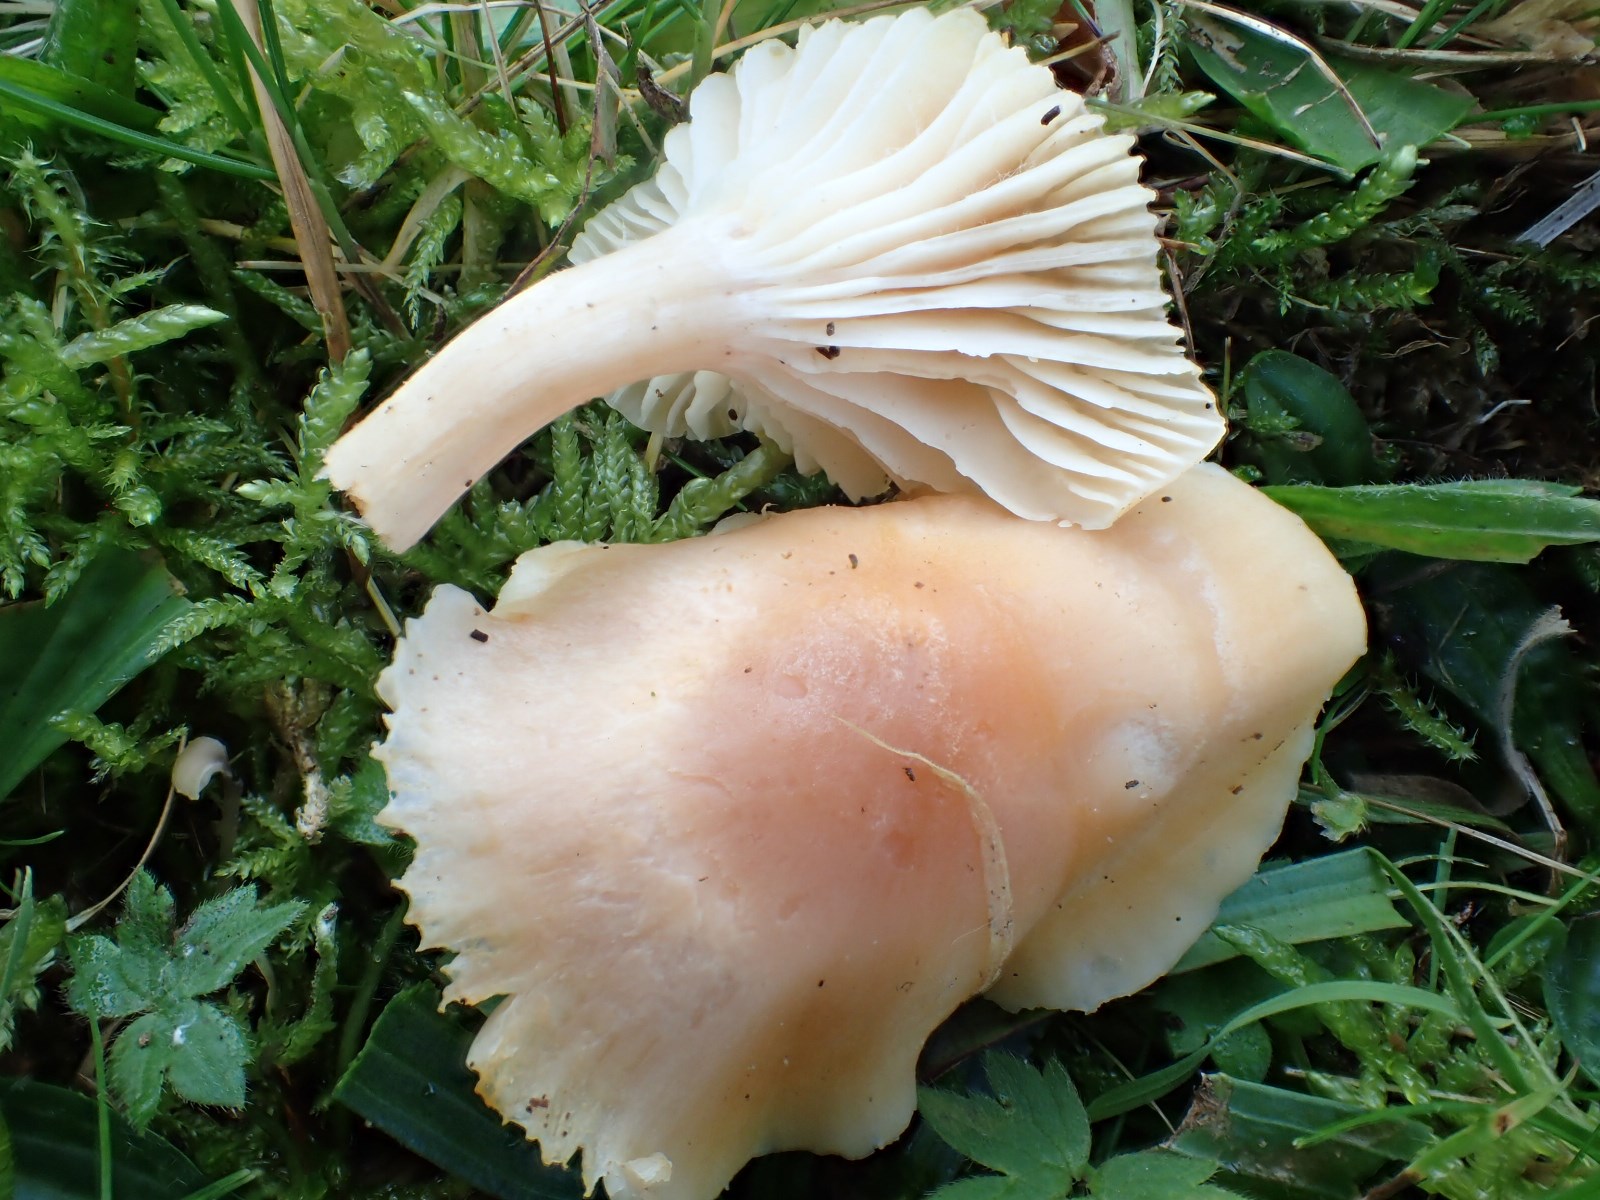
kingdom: Fungi
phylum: Basidiomycota
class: Agaricomycetes
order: Agaricales
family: Hygrophoraceae
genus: Cuphophyllus
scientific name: Cuphophyllus pratensis
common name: eng-vokshat
